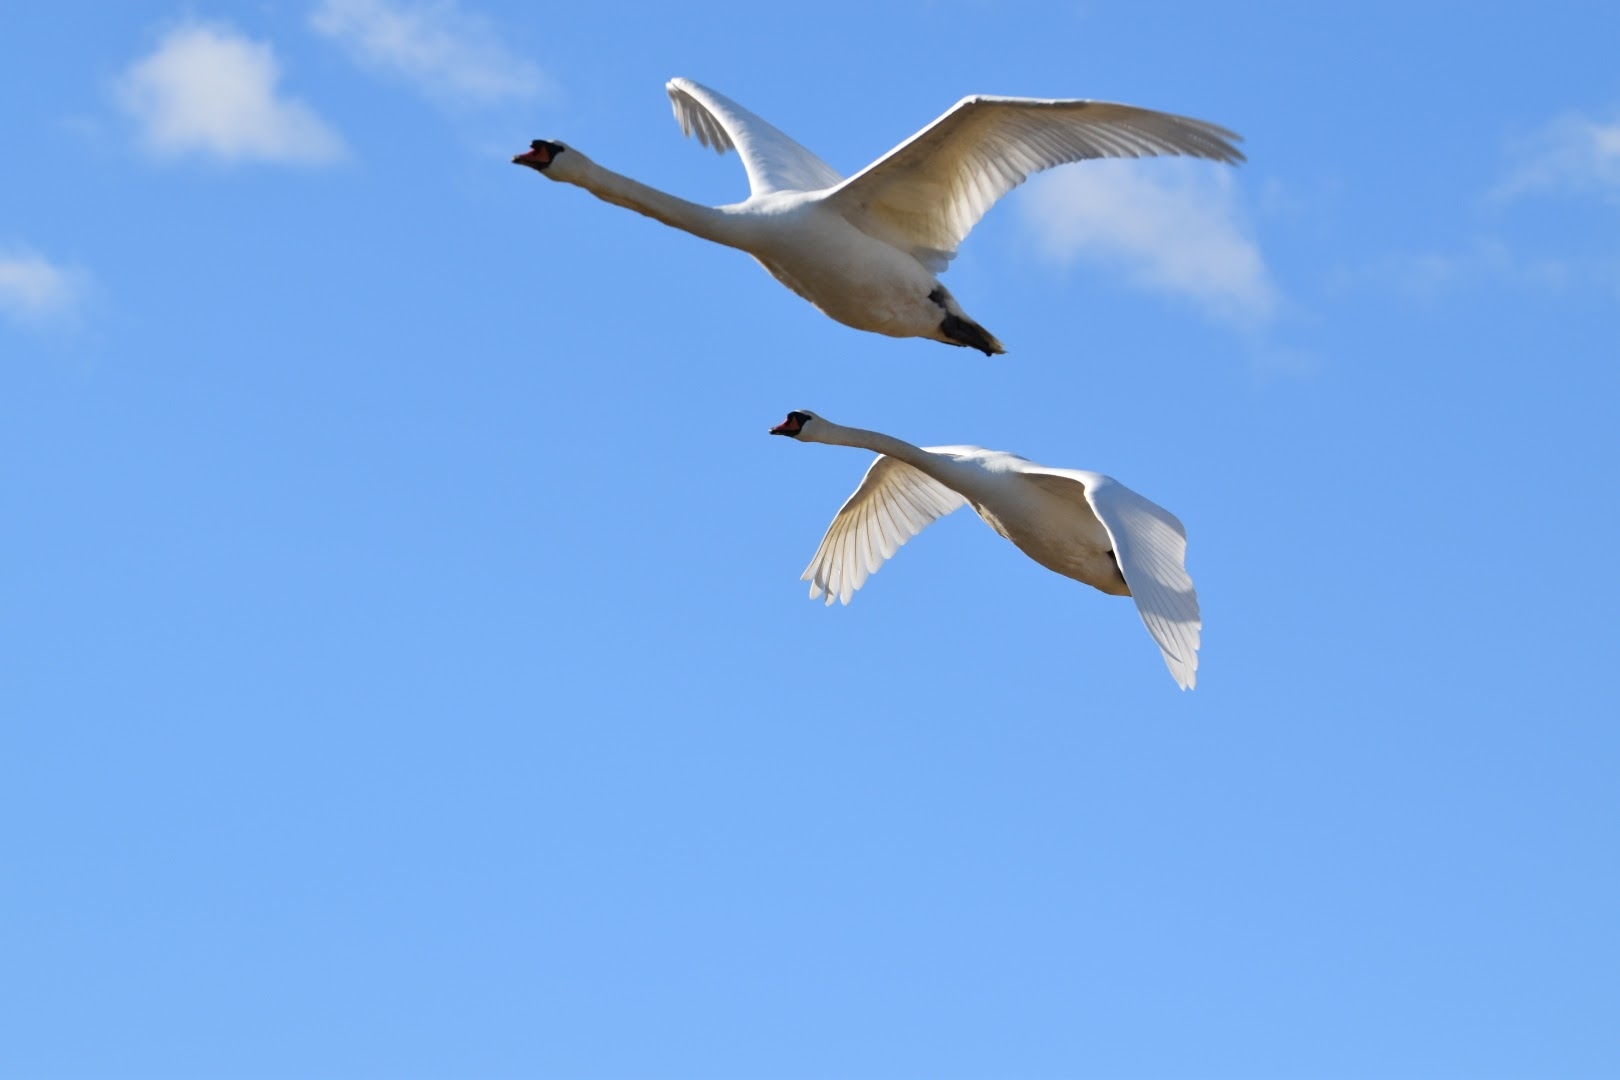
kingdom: Animalia
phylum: Chordata
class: Aves
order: Anseriformes
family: Anatidae
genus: Cygnus
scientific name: Cygnus olor
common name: Knopsvane
